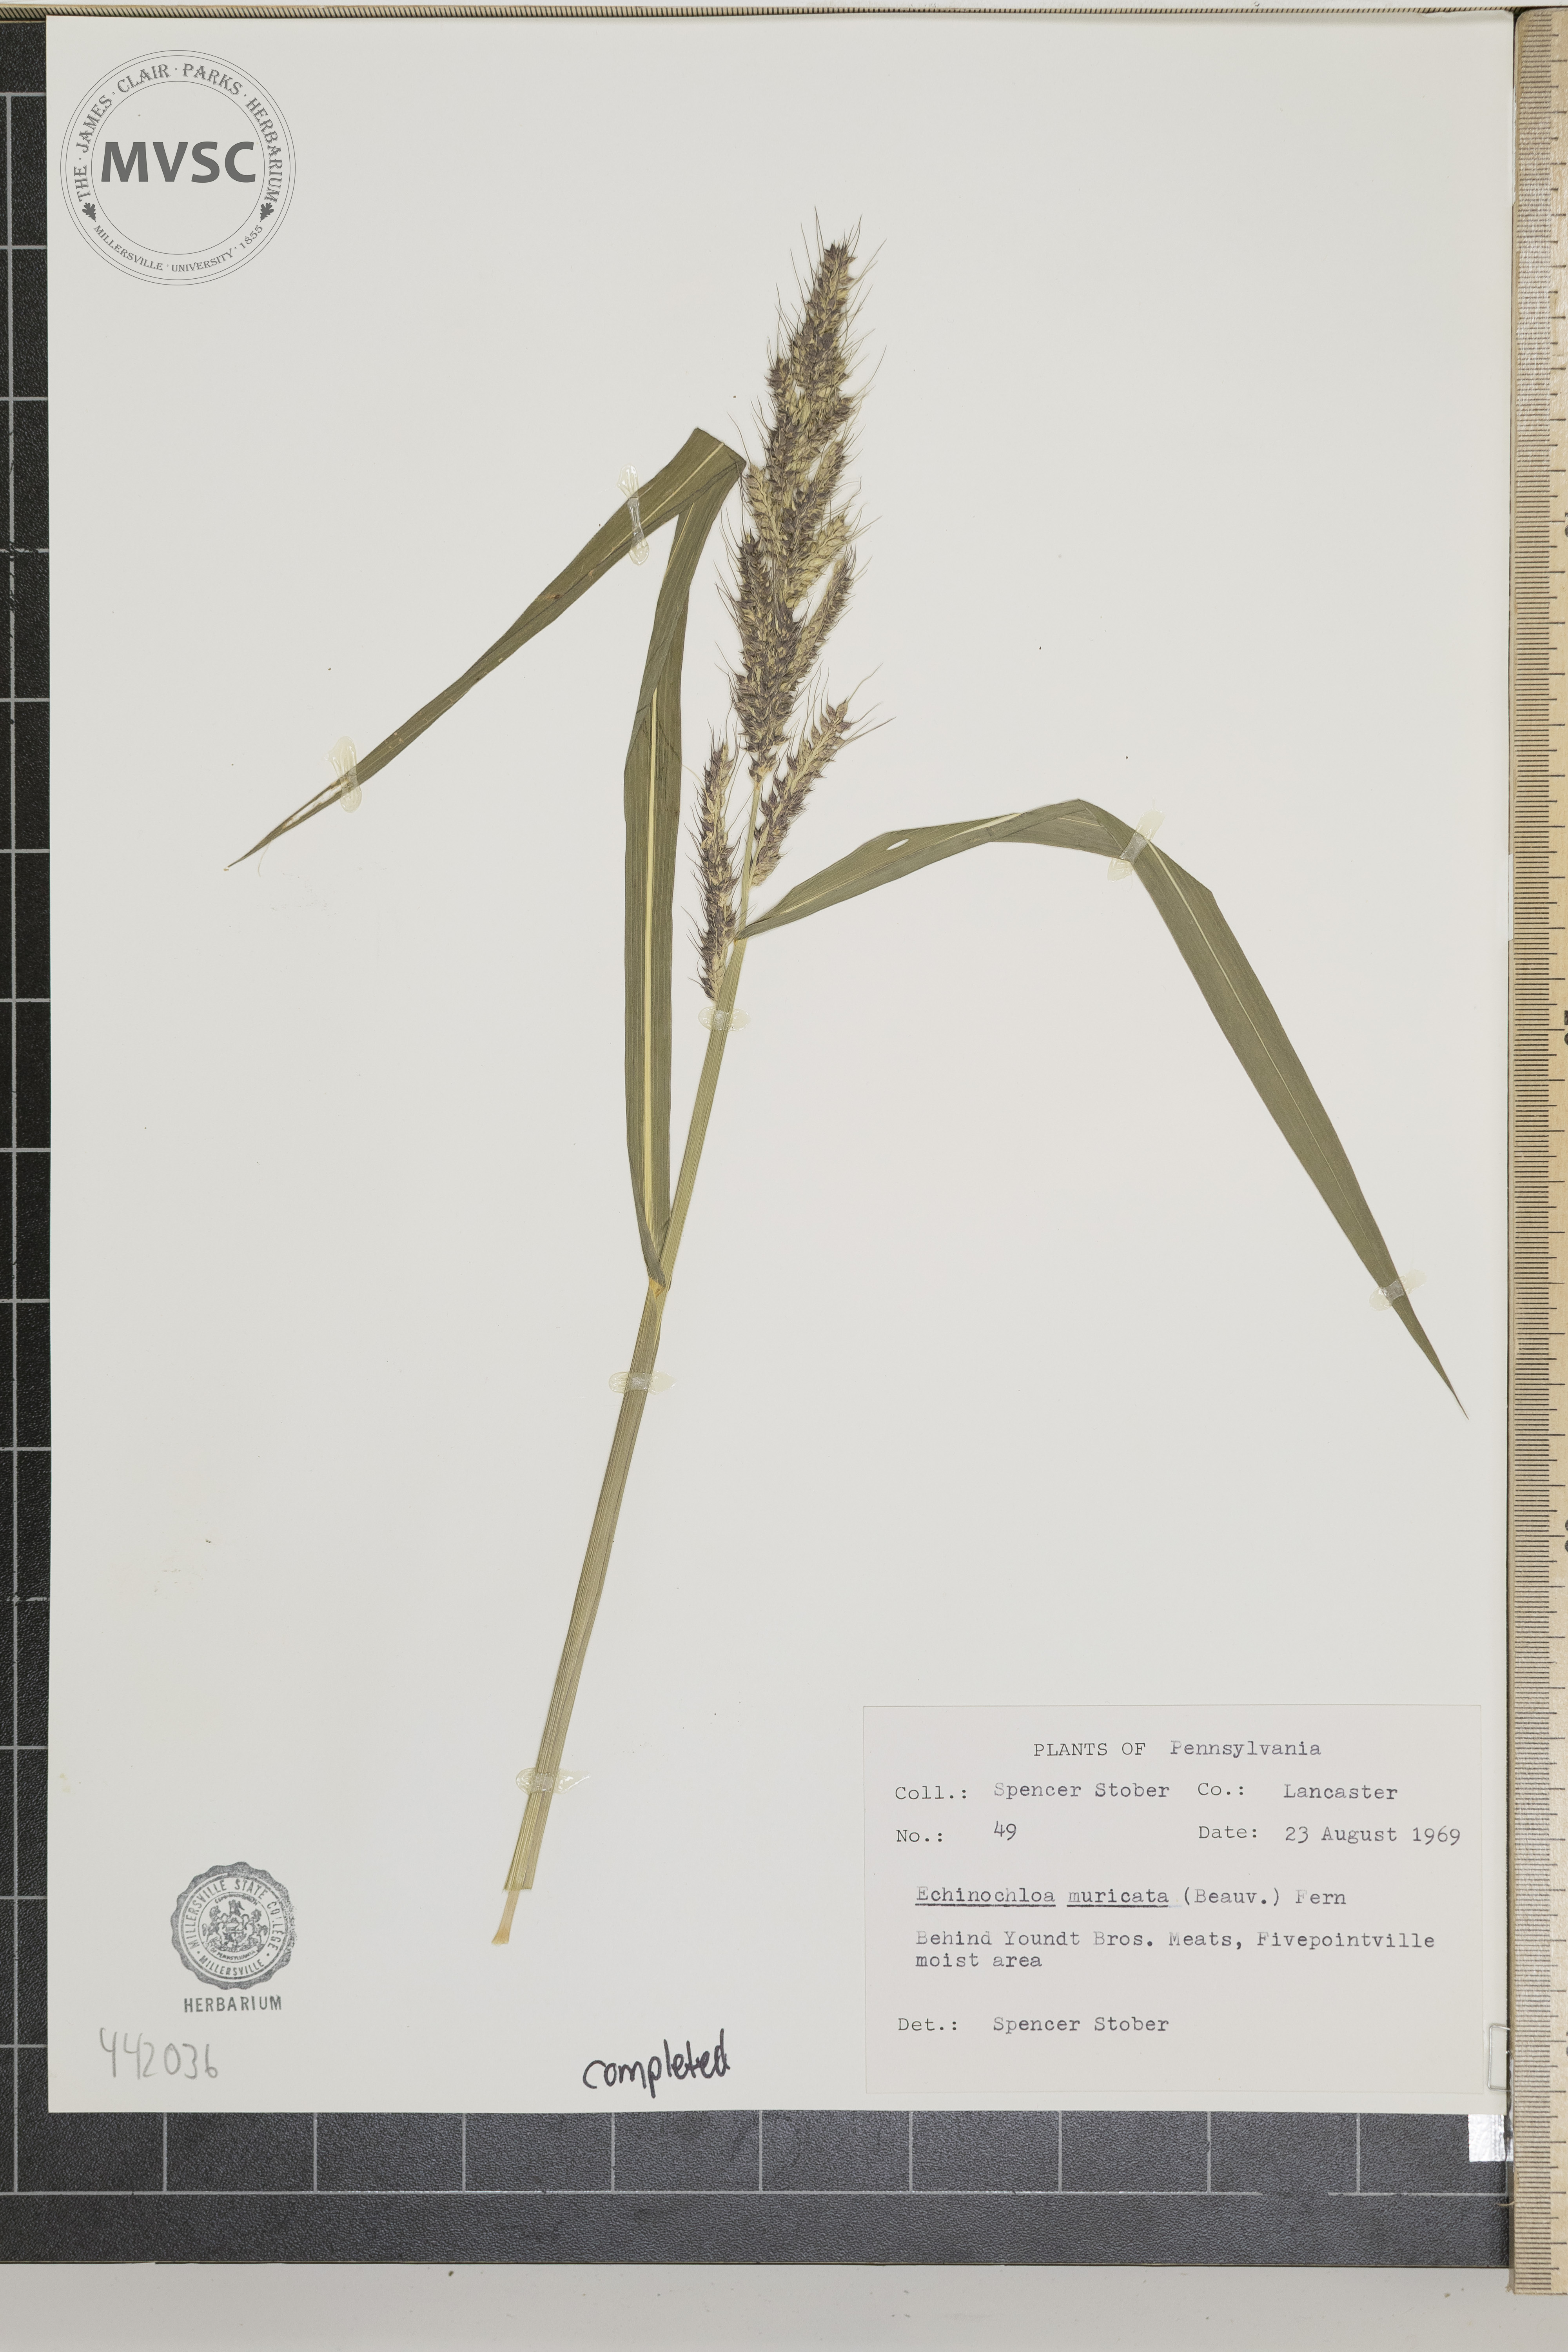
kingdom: Plantae
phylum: Tracheophyta
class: Liliopsida
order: Poales
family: Poaceae
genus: Echinochloa
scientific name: Echinochloa muricata
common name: American barnyard grass
